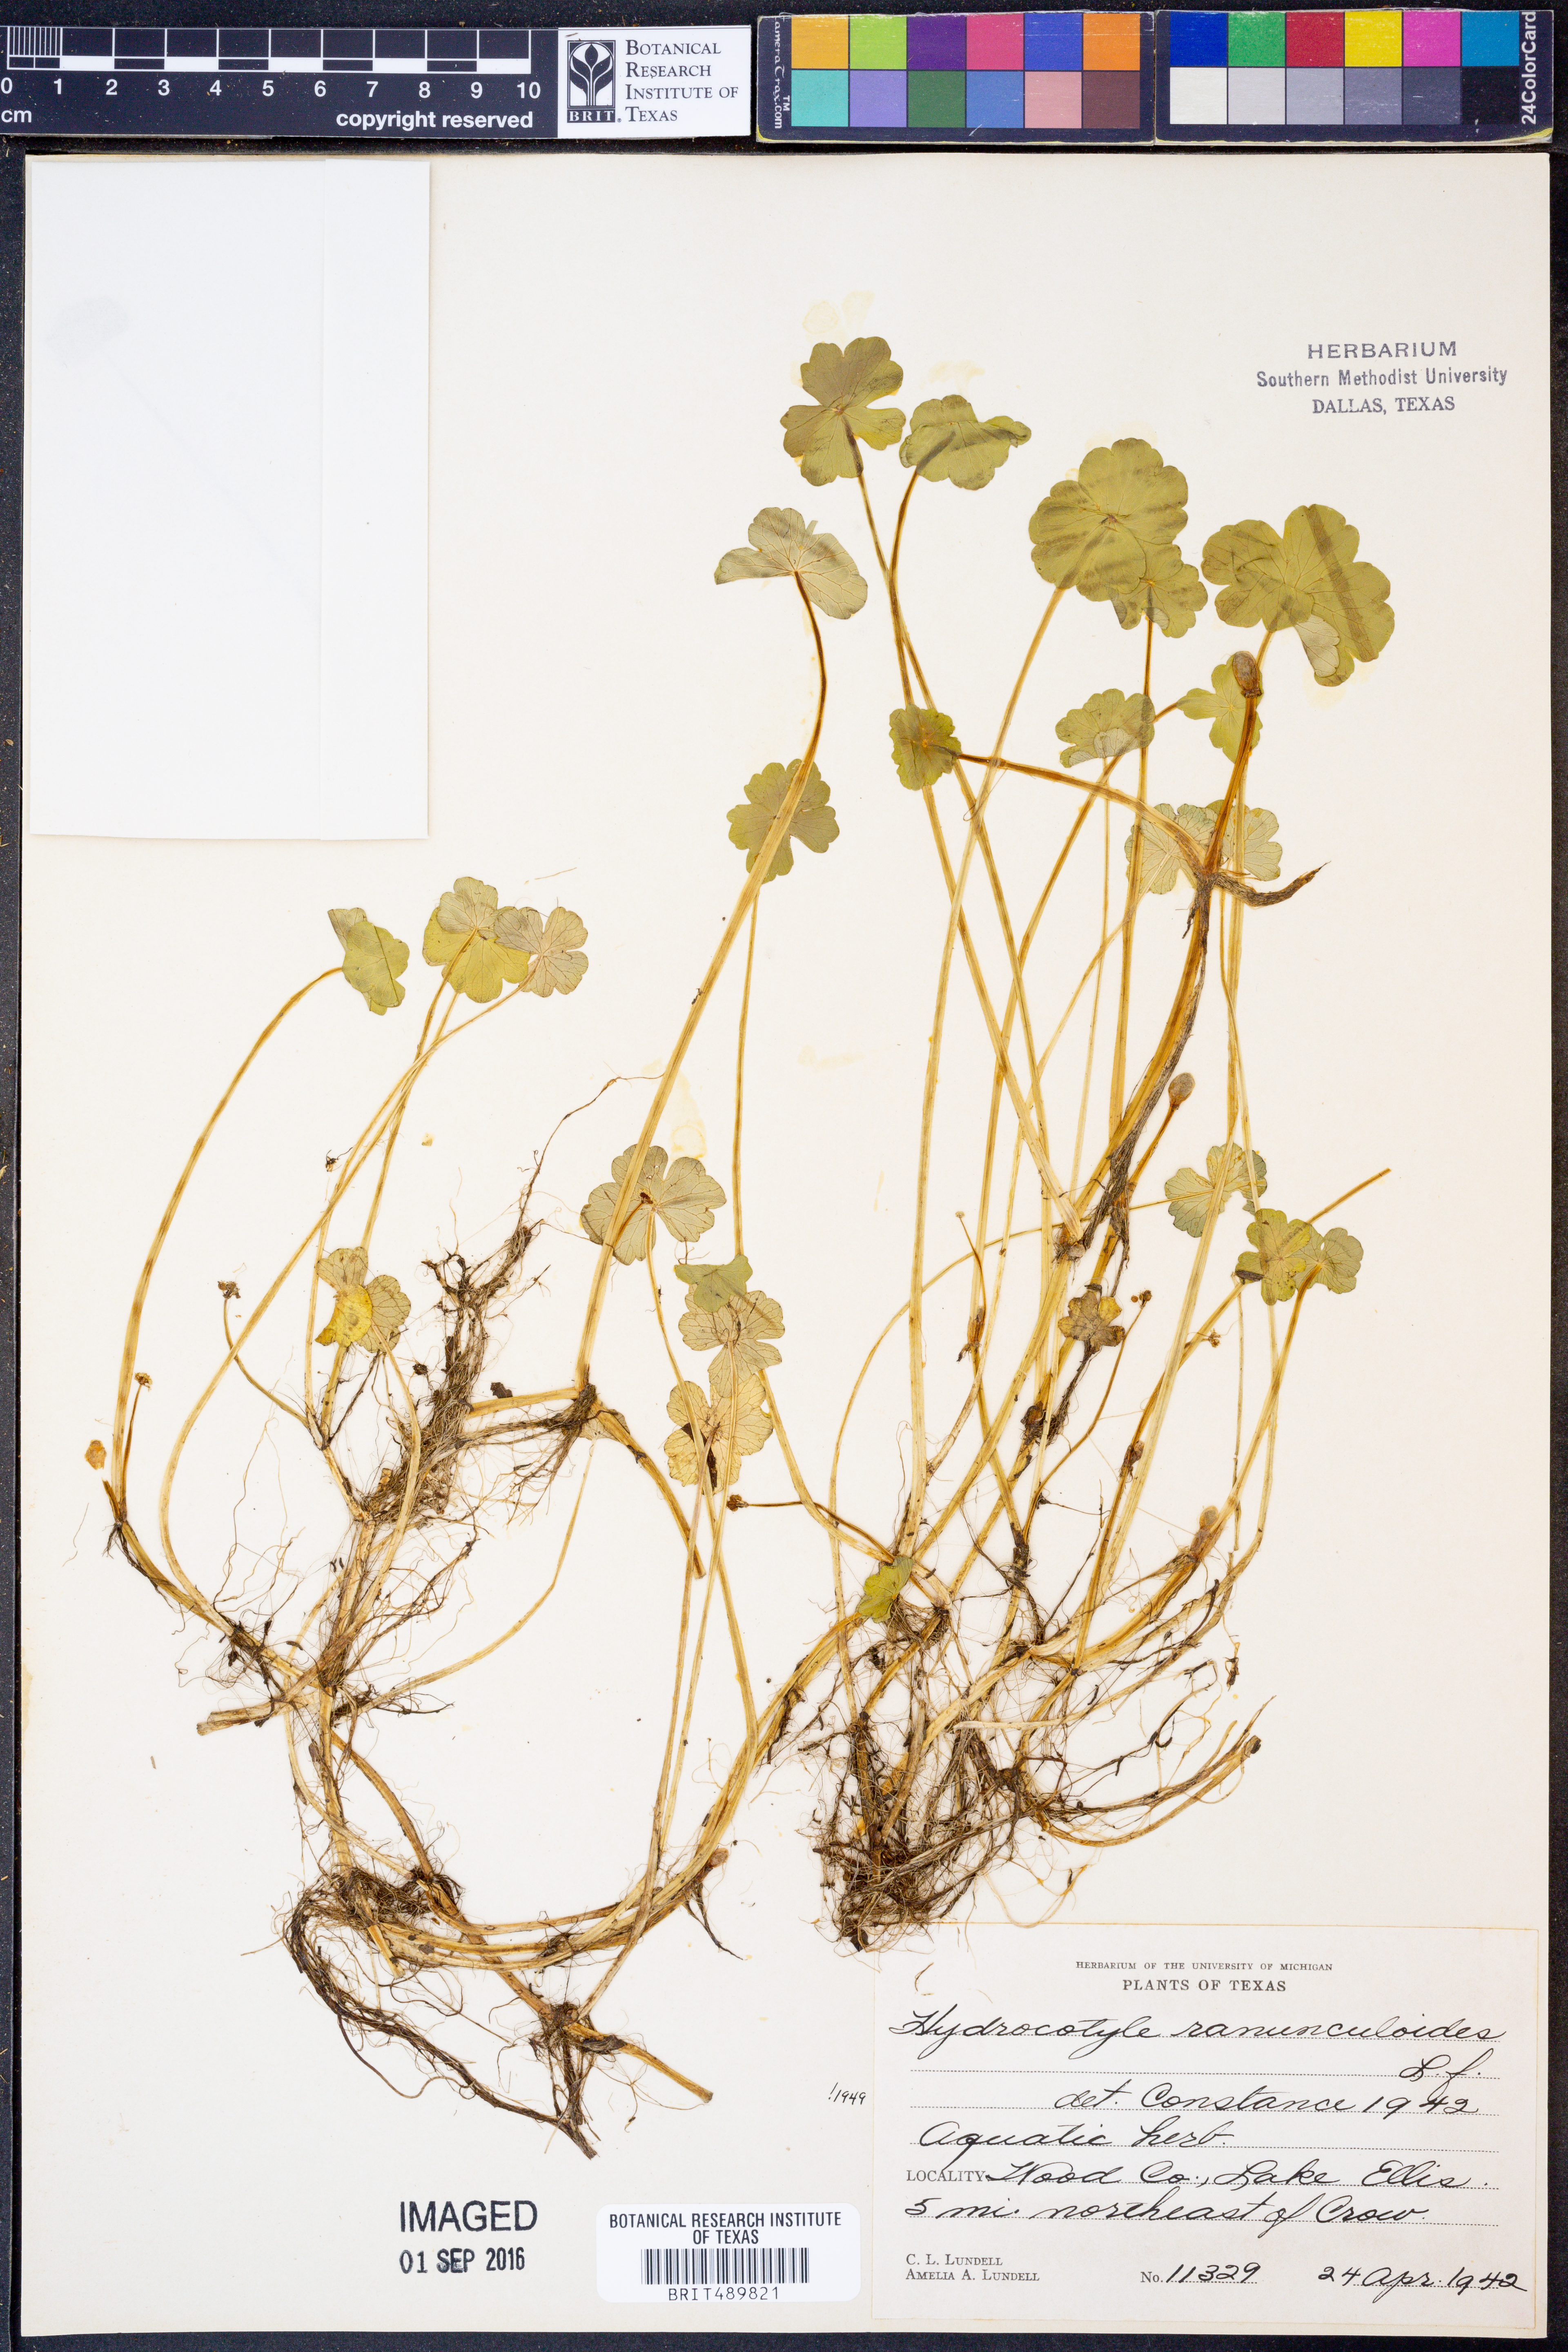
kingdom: Plantae
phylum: Tracheophyta
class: Magnoliopsida
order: Apiales
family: Araliaceae
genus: Hydrocotyle
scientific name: Hydrocotyle ranunculoides
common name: Floating pennywort
